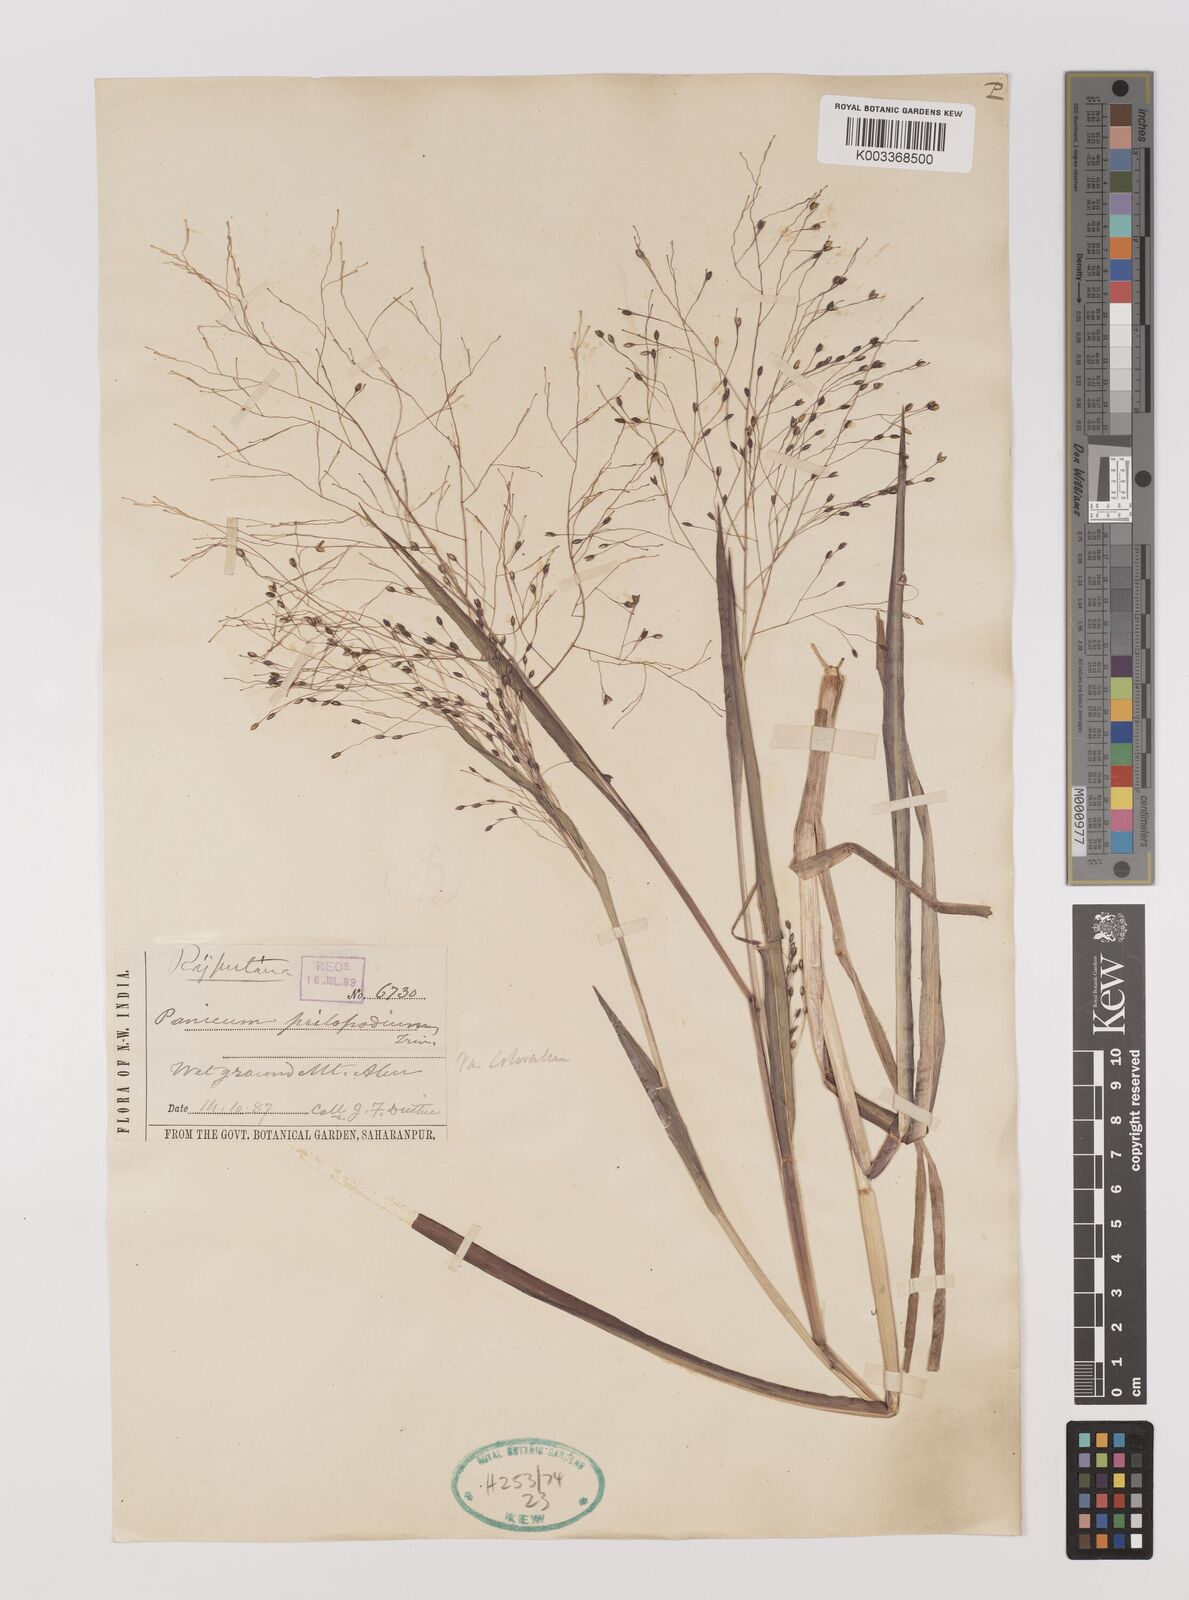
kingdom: Plantae
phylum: Tracheophyta
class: Liliopsida
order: Poales
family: Poaceae
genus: Panicum
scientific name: Panicum sumatrense
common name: Little millet
